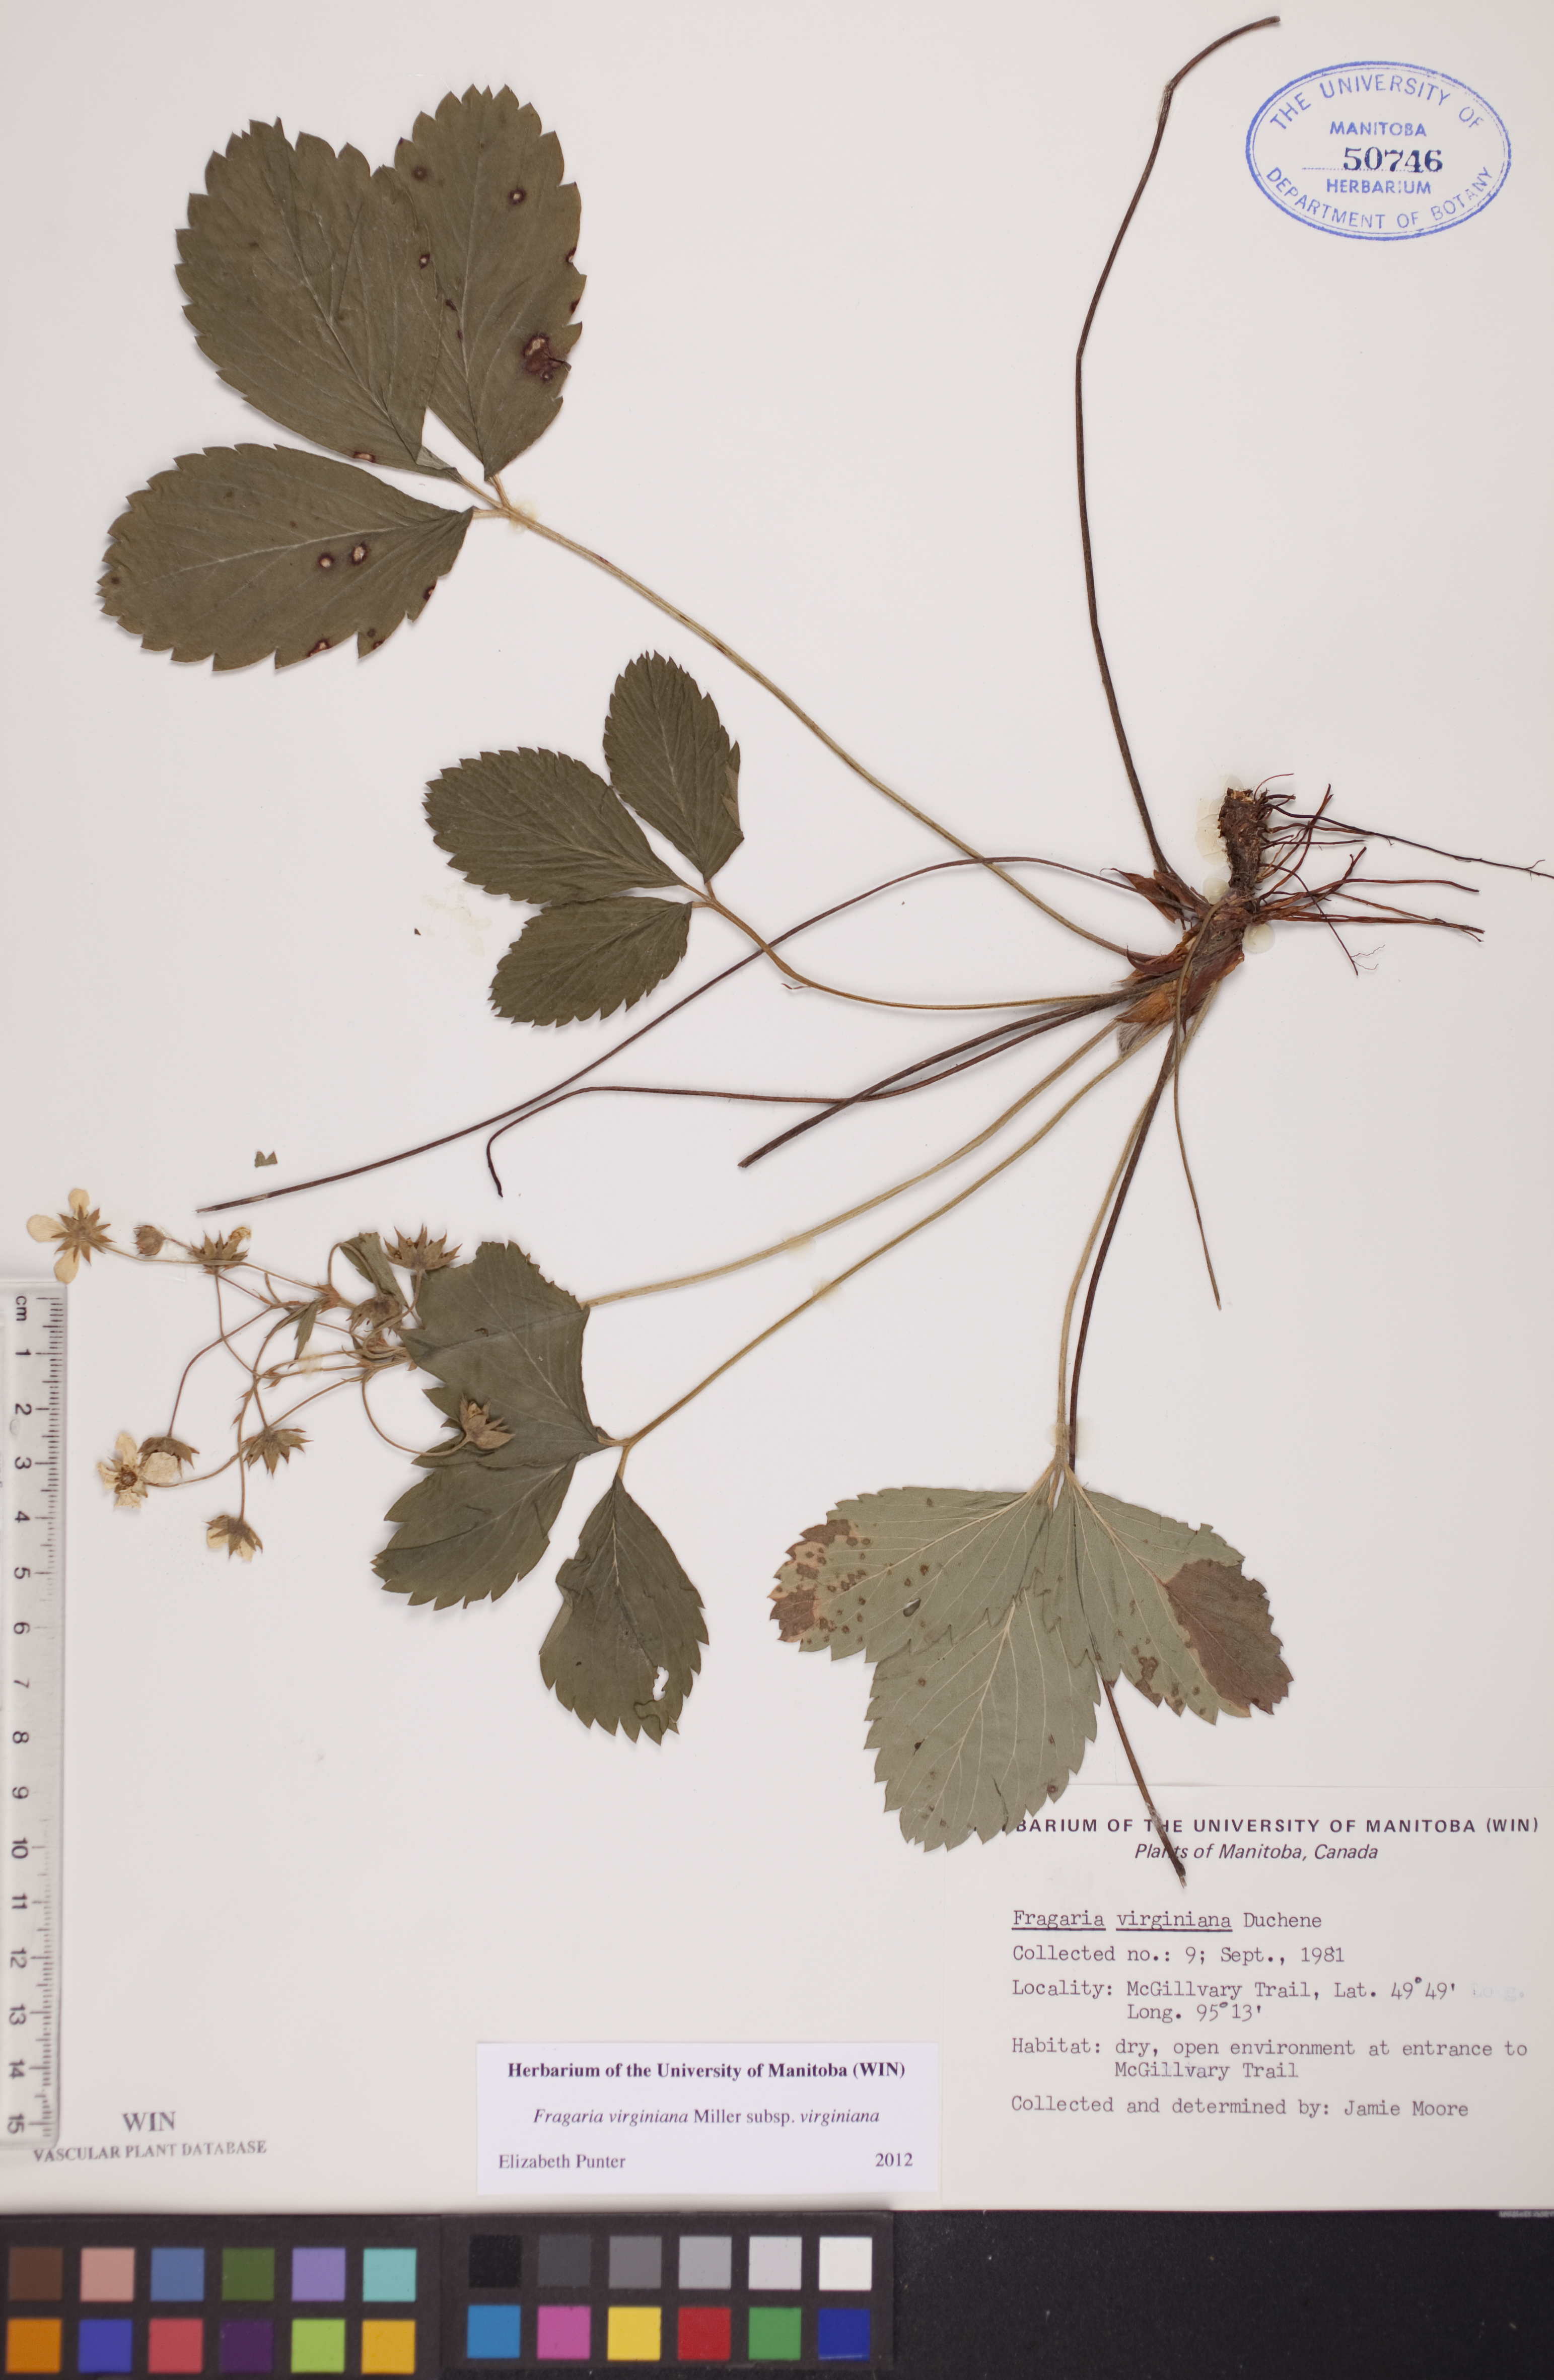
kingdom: Plantae
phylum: Tracheophyta
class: Magnoliopsida
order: Rosales
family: Rosaceae
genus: Fragaria
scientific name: Fragaria virginiana
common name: Thickleaved wild strawberry
